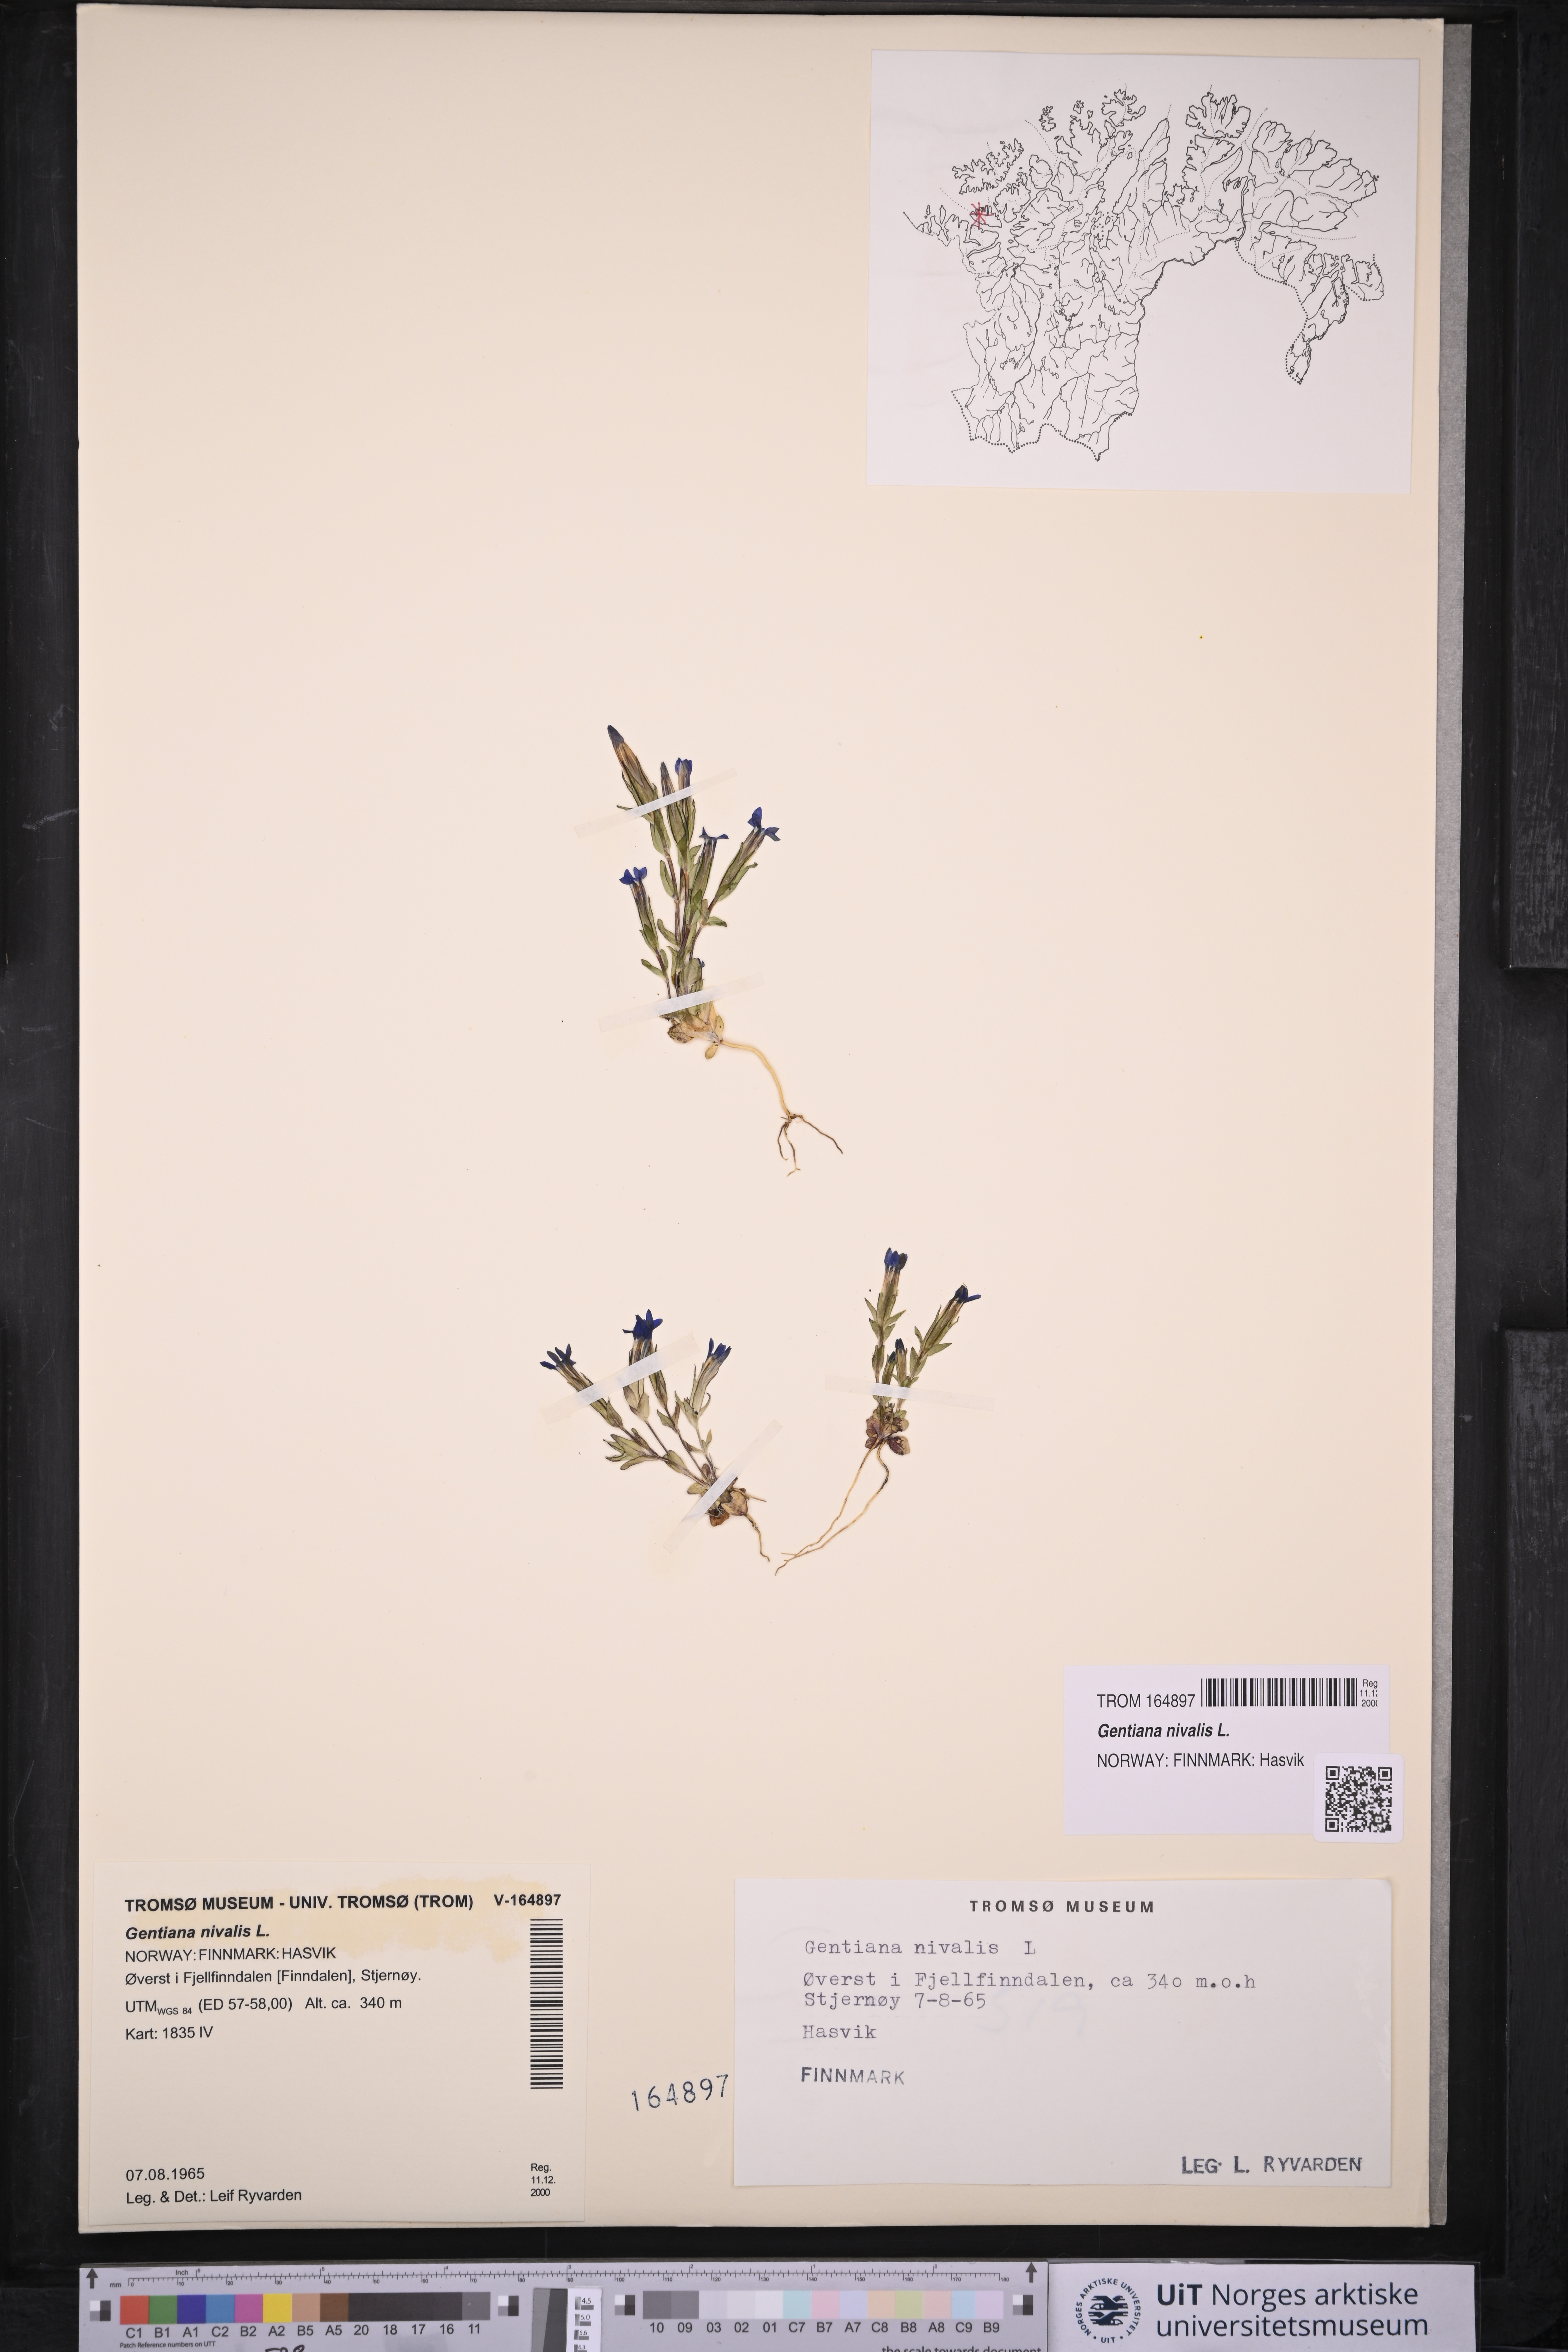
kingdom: Plantae
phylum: Tracheophyta
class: Magnoliopsida
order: Gentianales
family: Gentianaceae
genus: Gentiana
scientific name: Gentiana nivalis
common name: Alpine gentian
